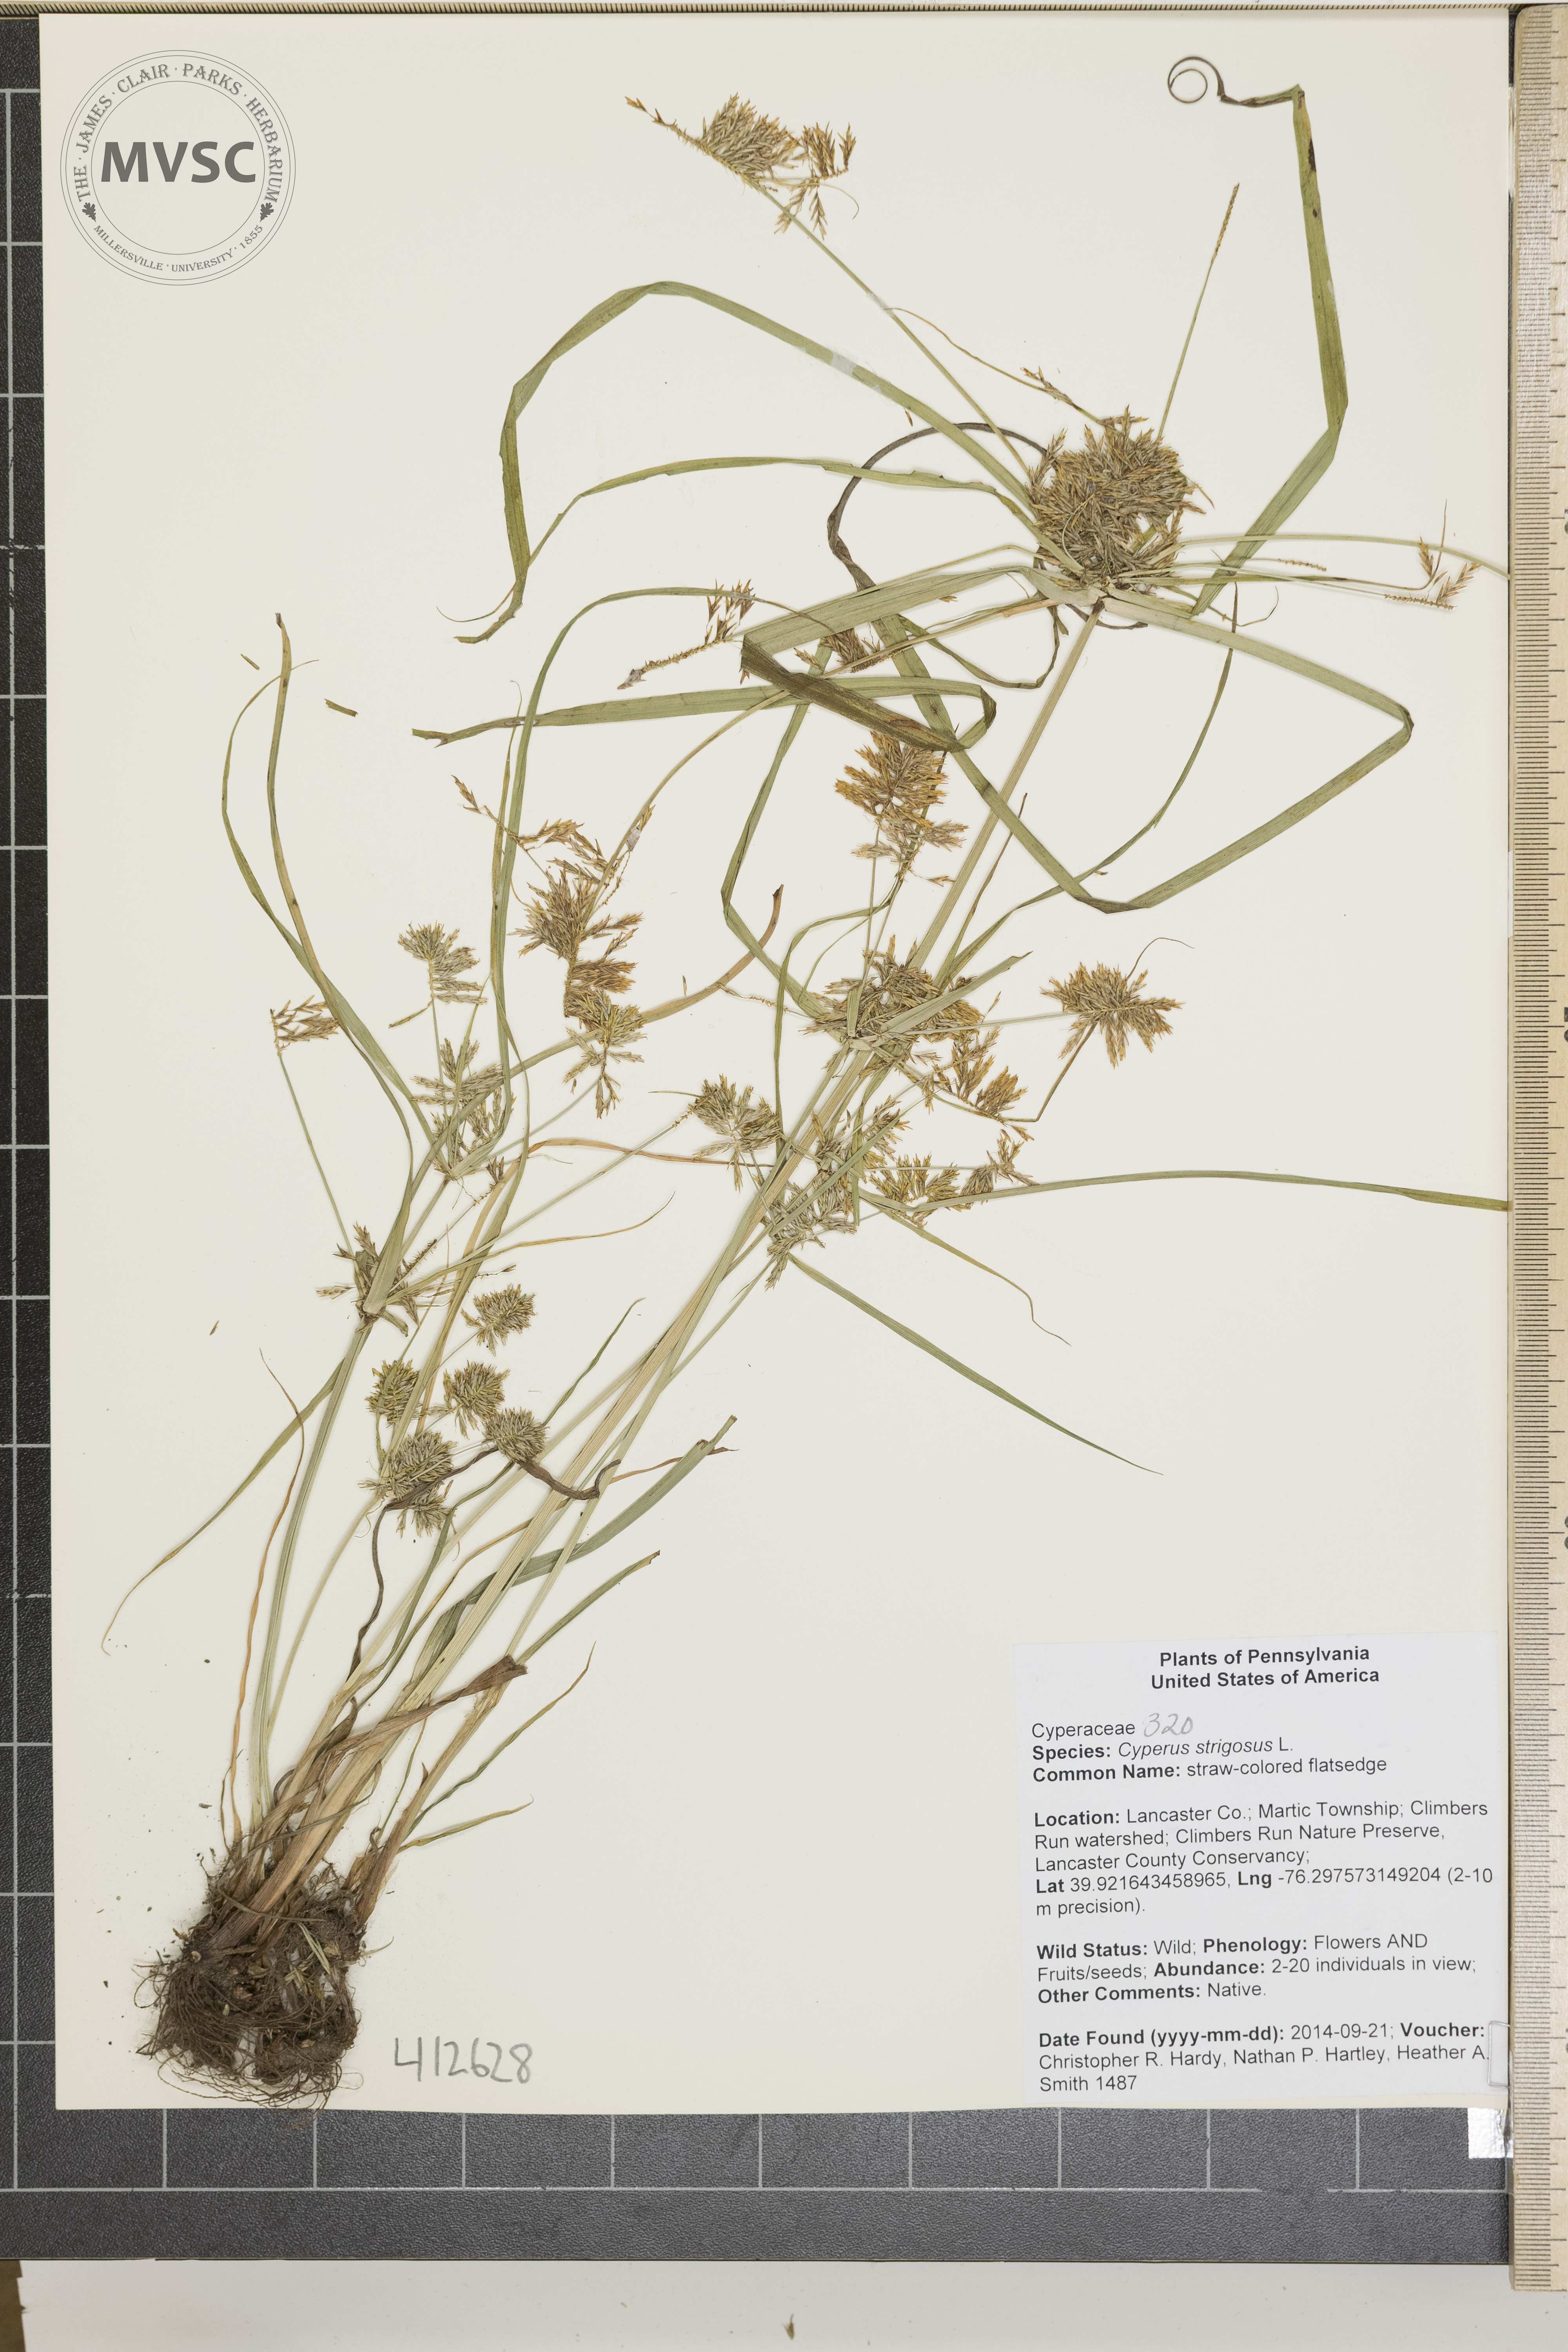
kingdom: Plantae
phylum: Tracheophyta
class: Liliopsida
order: Poales
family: Cyperaceae
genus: Cyperus
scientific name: Cyperus strigosus
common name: straw-colored flatsedge
